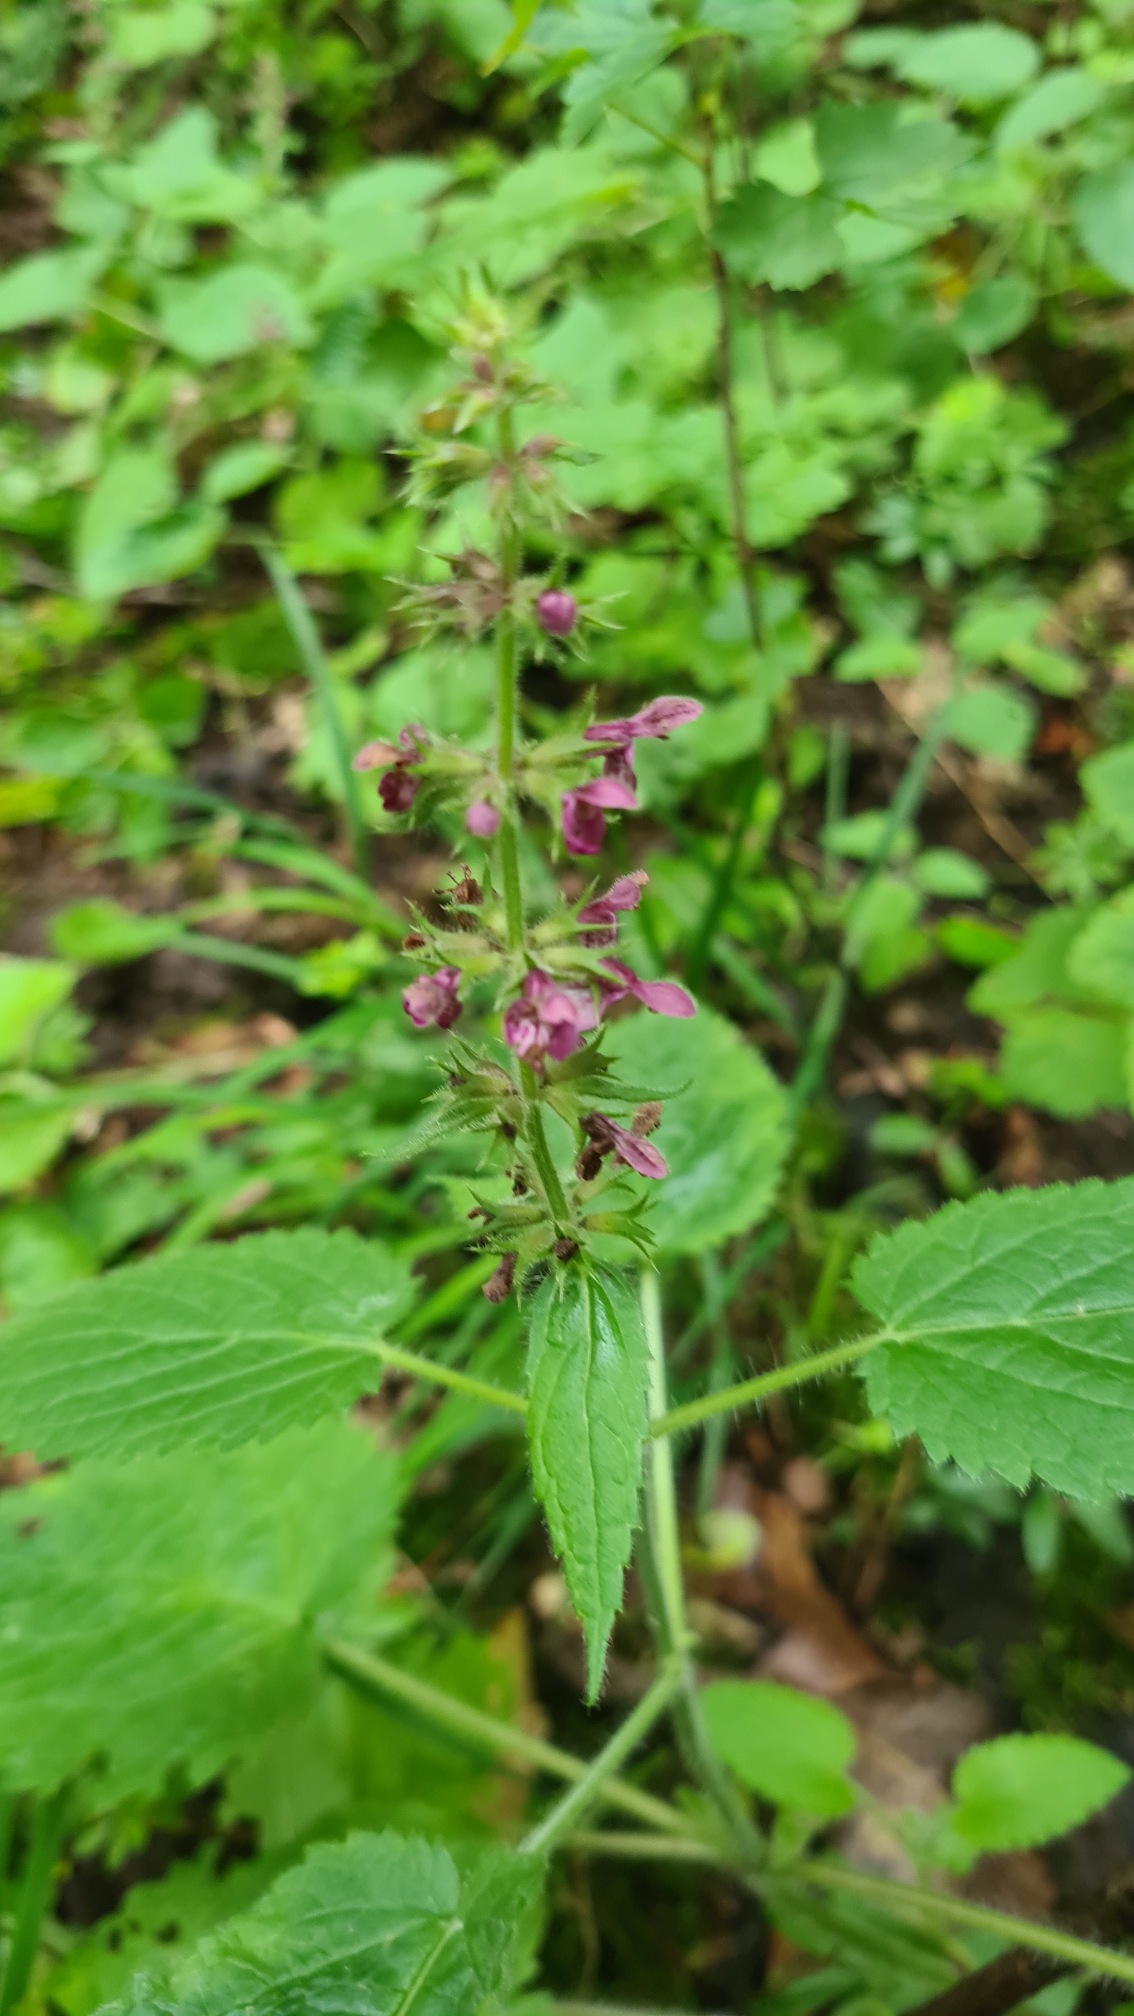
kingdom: Plantae
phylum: Tracheophyta
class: Magnoliopsida
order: Lamiales
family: Lamiaceae
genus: Stachys
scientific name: Stachys sylvatica
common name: Skov-galtetand
